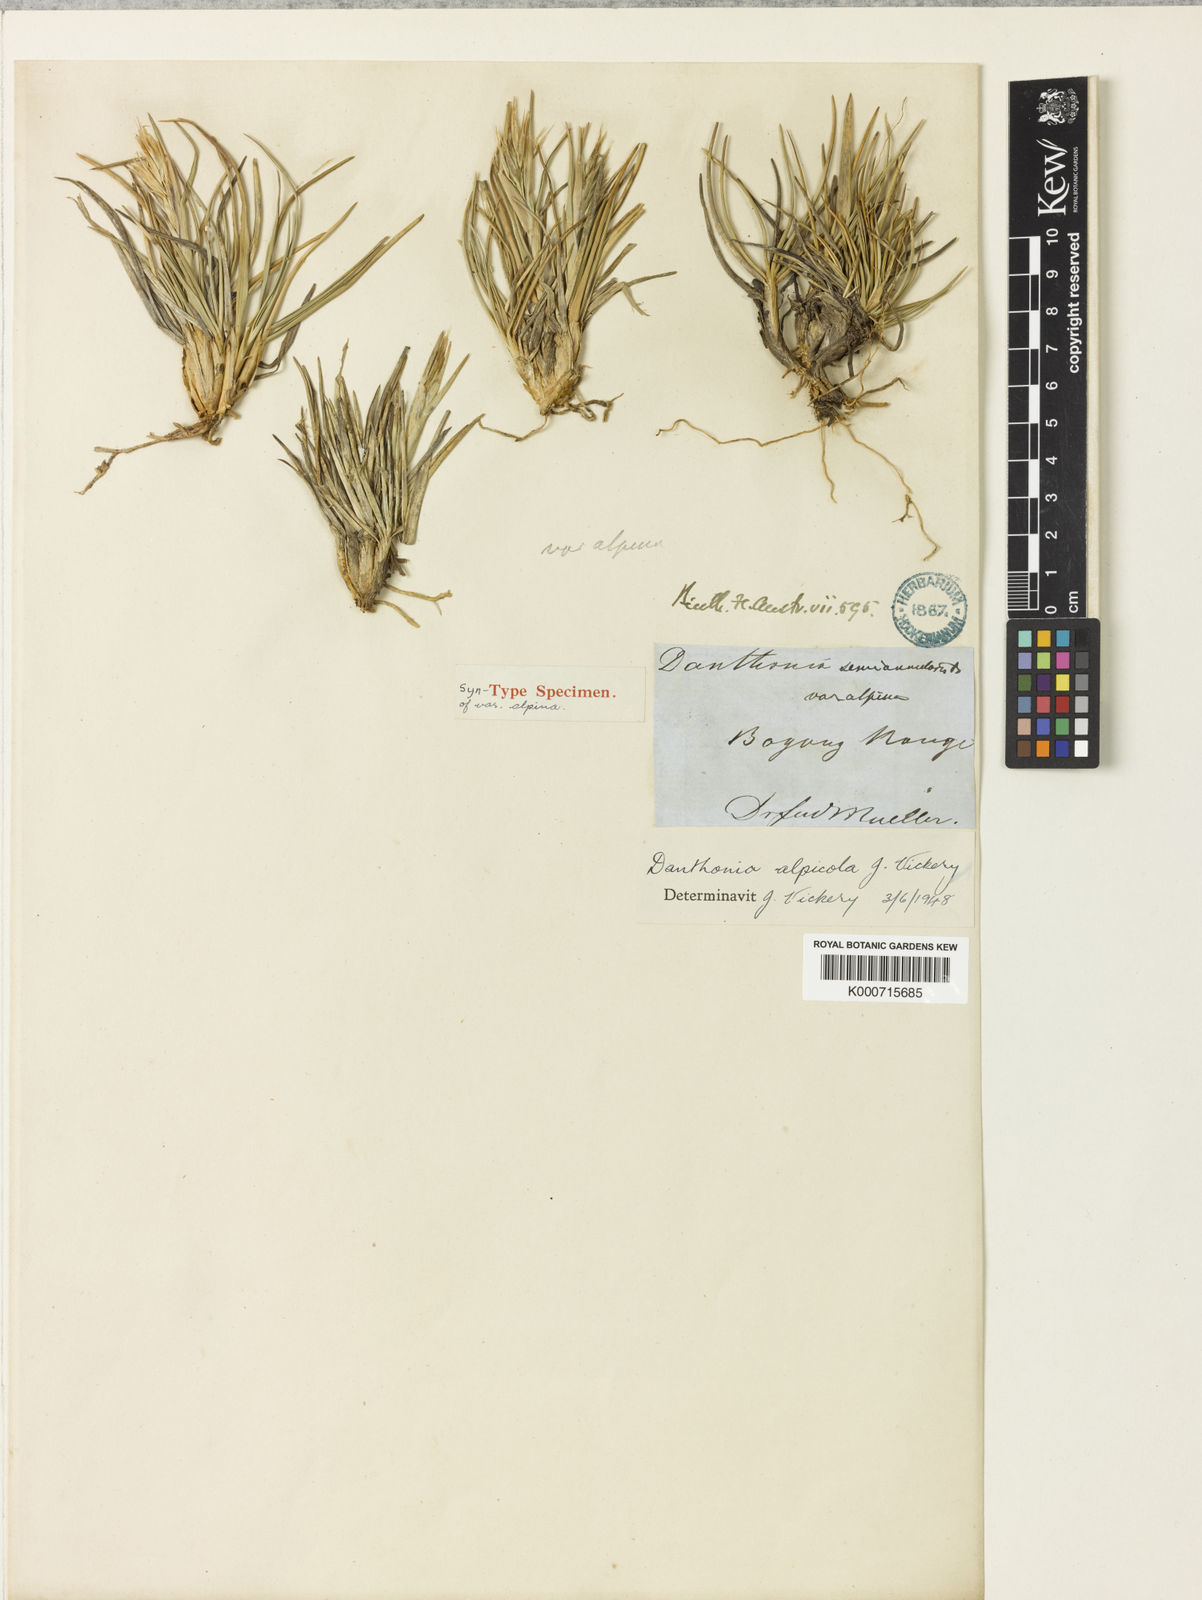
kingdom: Plantae
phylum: Tracheophyta
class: Liliopsida
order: Poales
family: Poaceae
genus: Rytidosperma
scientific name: Rytidosperma alpicola
